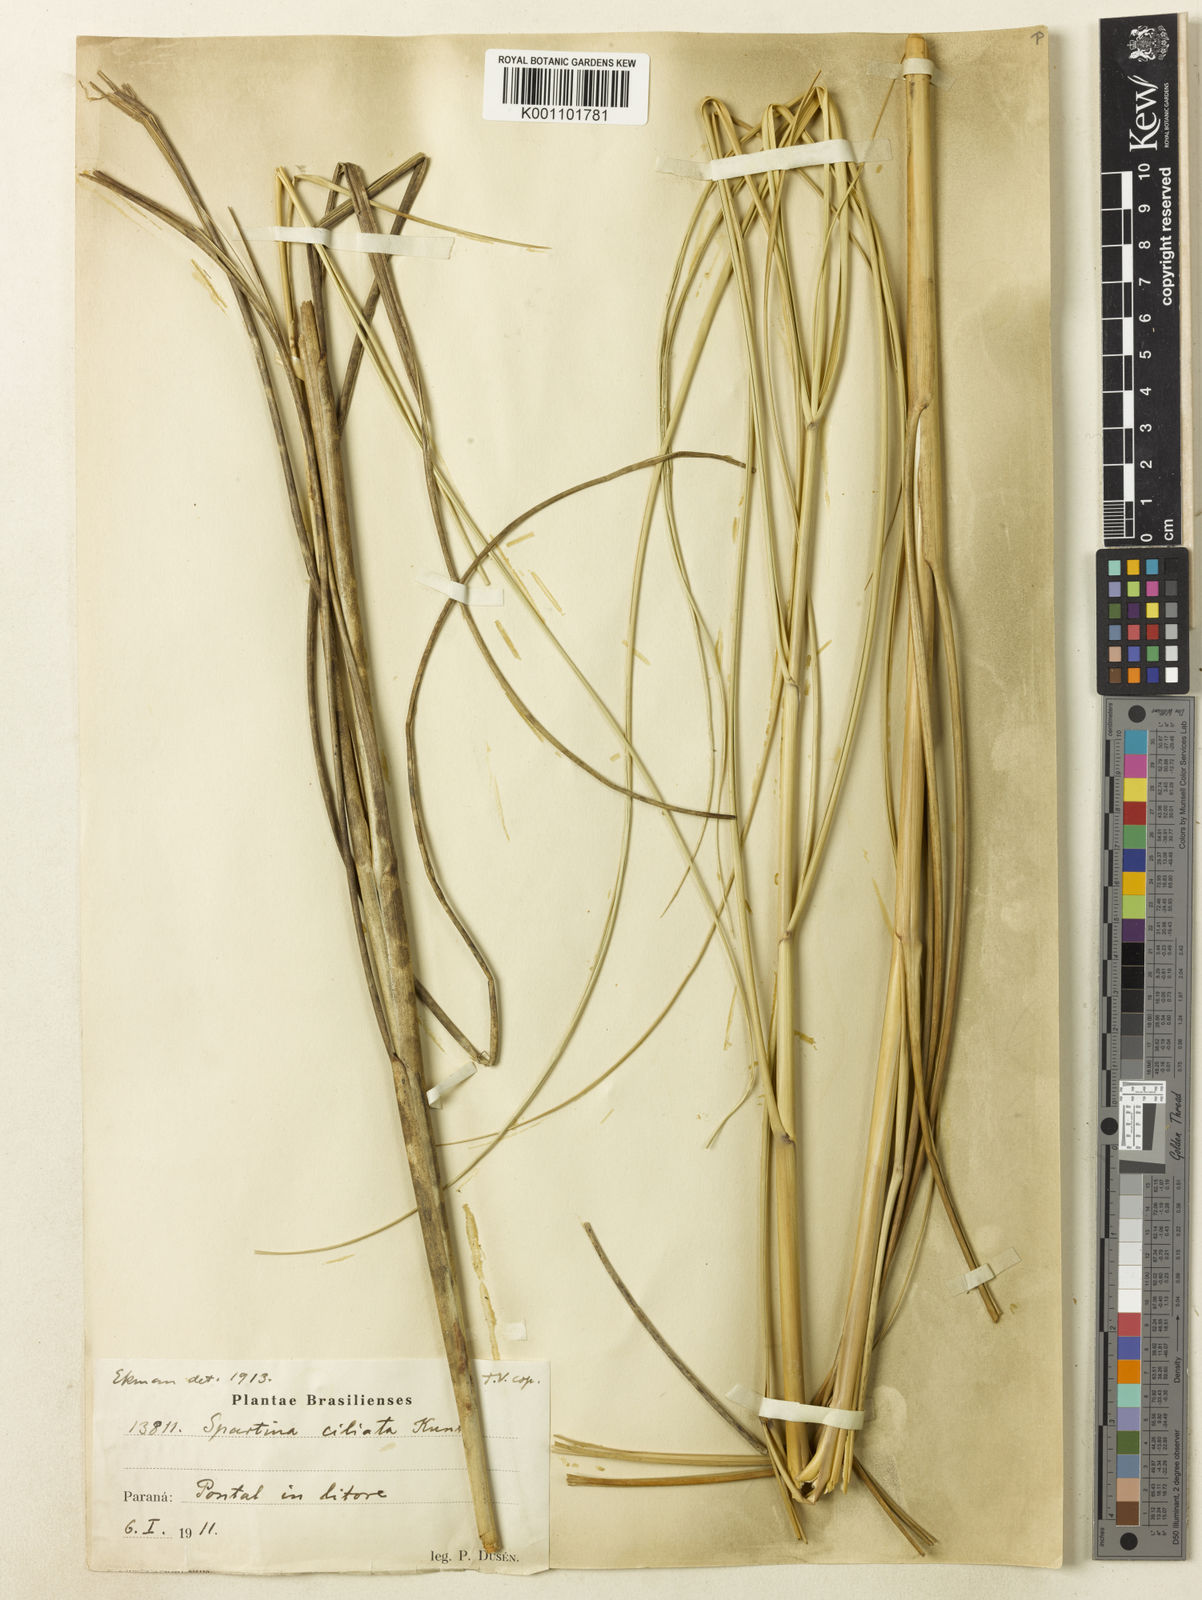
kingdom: Plantae
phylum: Tracheophyta
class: Liliopsida
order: Poales
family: Poaceae
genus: Sporobolus
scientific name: Sporobolus coarctatus
